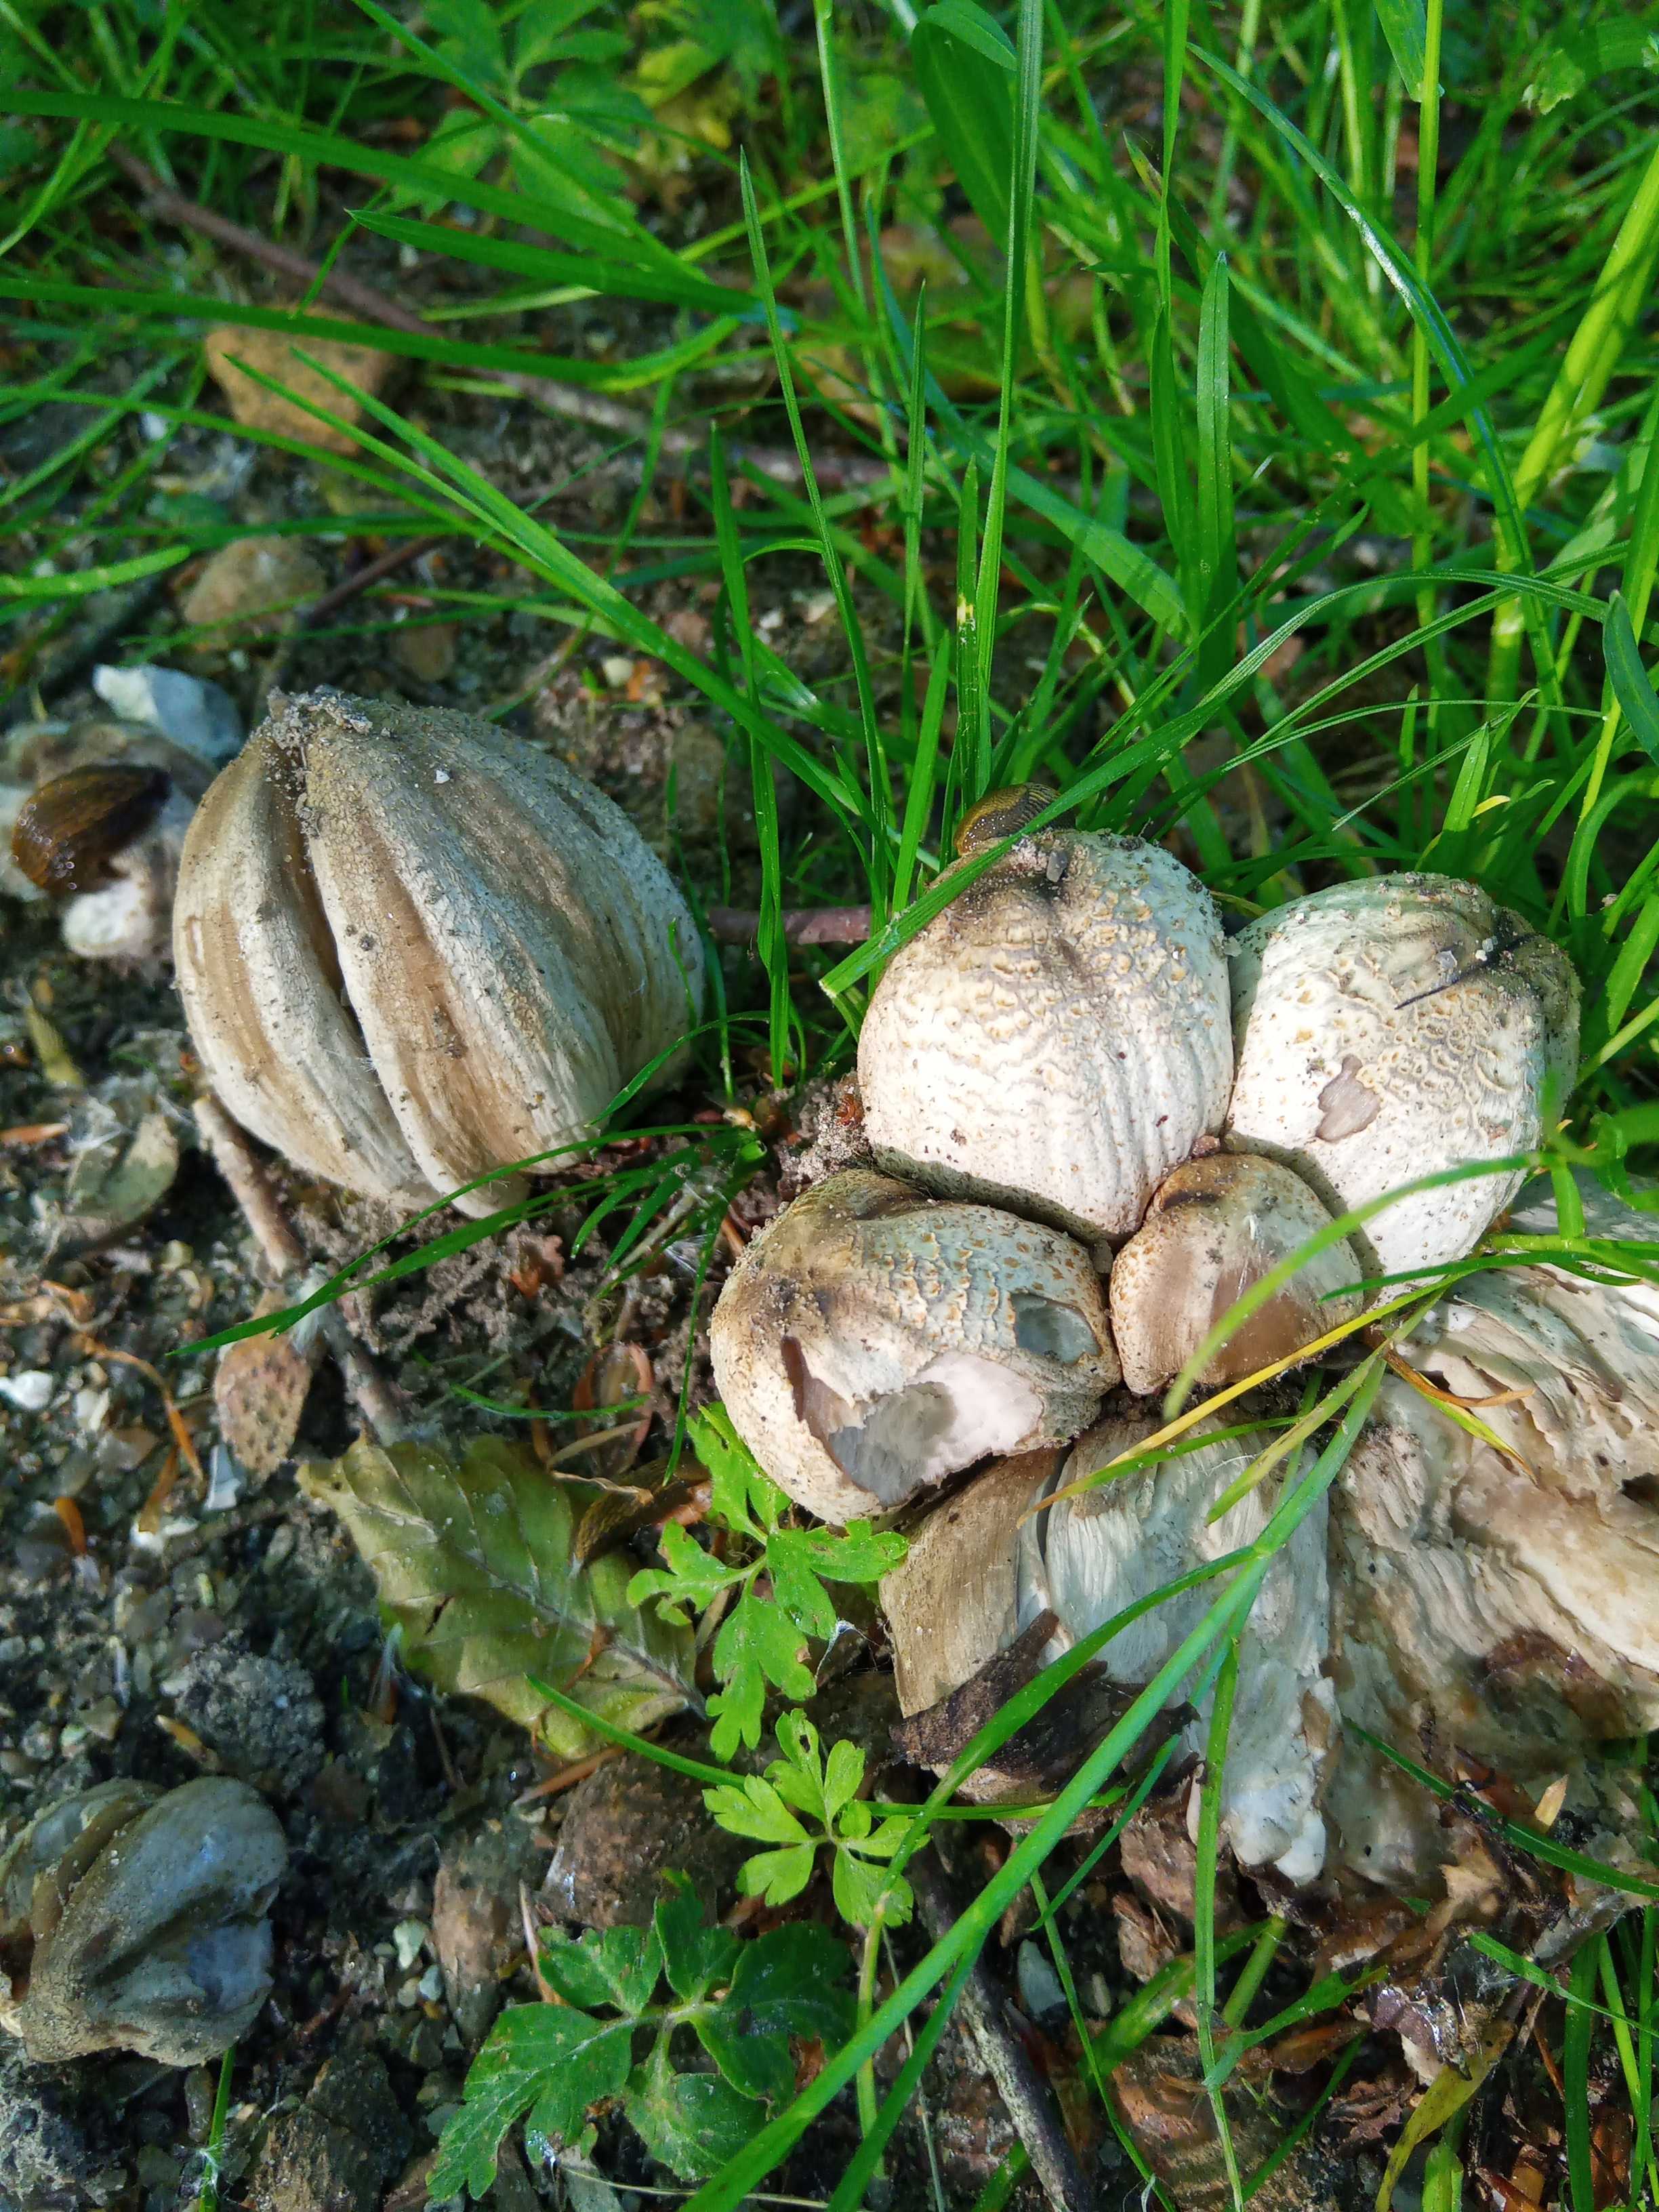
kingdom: Fungi
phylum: Basidiomycota
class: Agaricomycetes
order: Agaricales
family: Psathyrellaceae
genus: Coprinopsis
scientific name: Coprinopsis atramentaria
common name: almindelig blækhat
